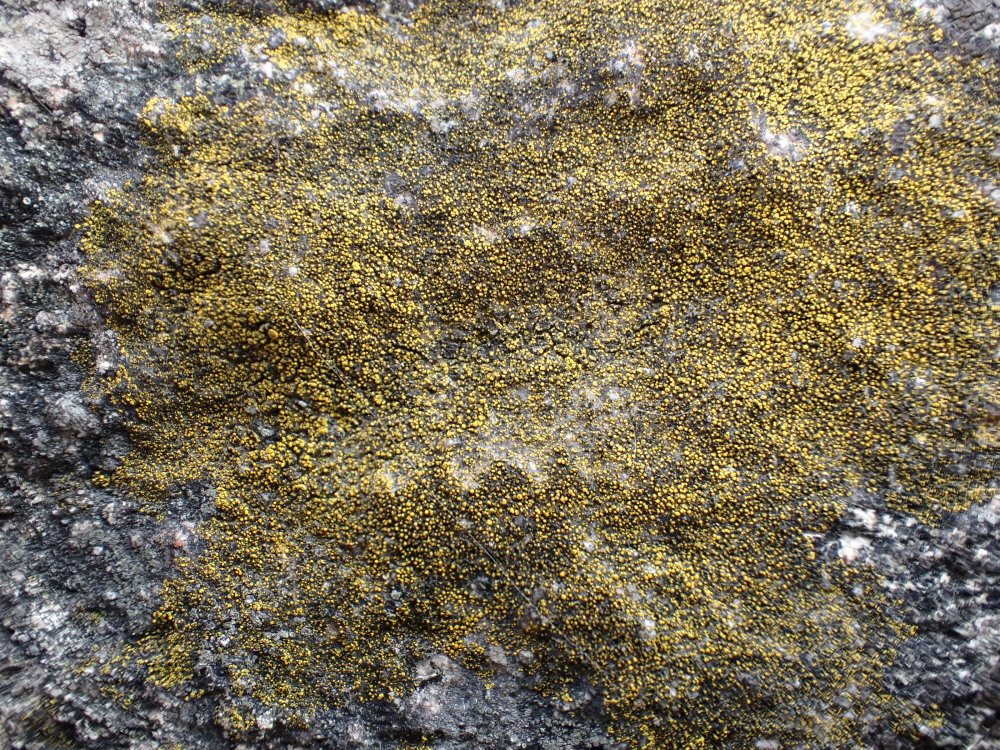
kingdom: Fungi
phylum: Ascomycota
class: Candelariomycetes
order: Candelariales
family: Candelariaceae
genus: Candelariella
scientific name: Candelariella vitellina
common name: almindelig æggeblommelav
